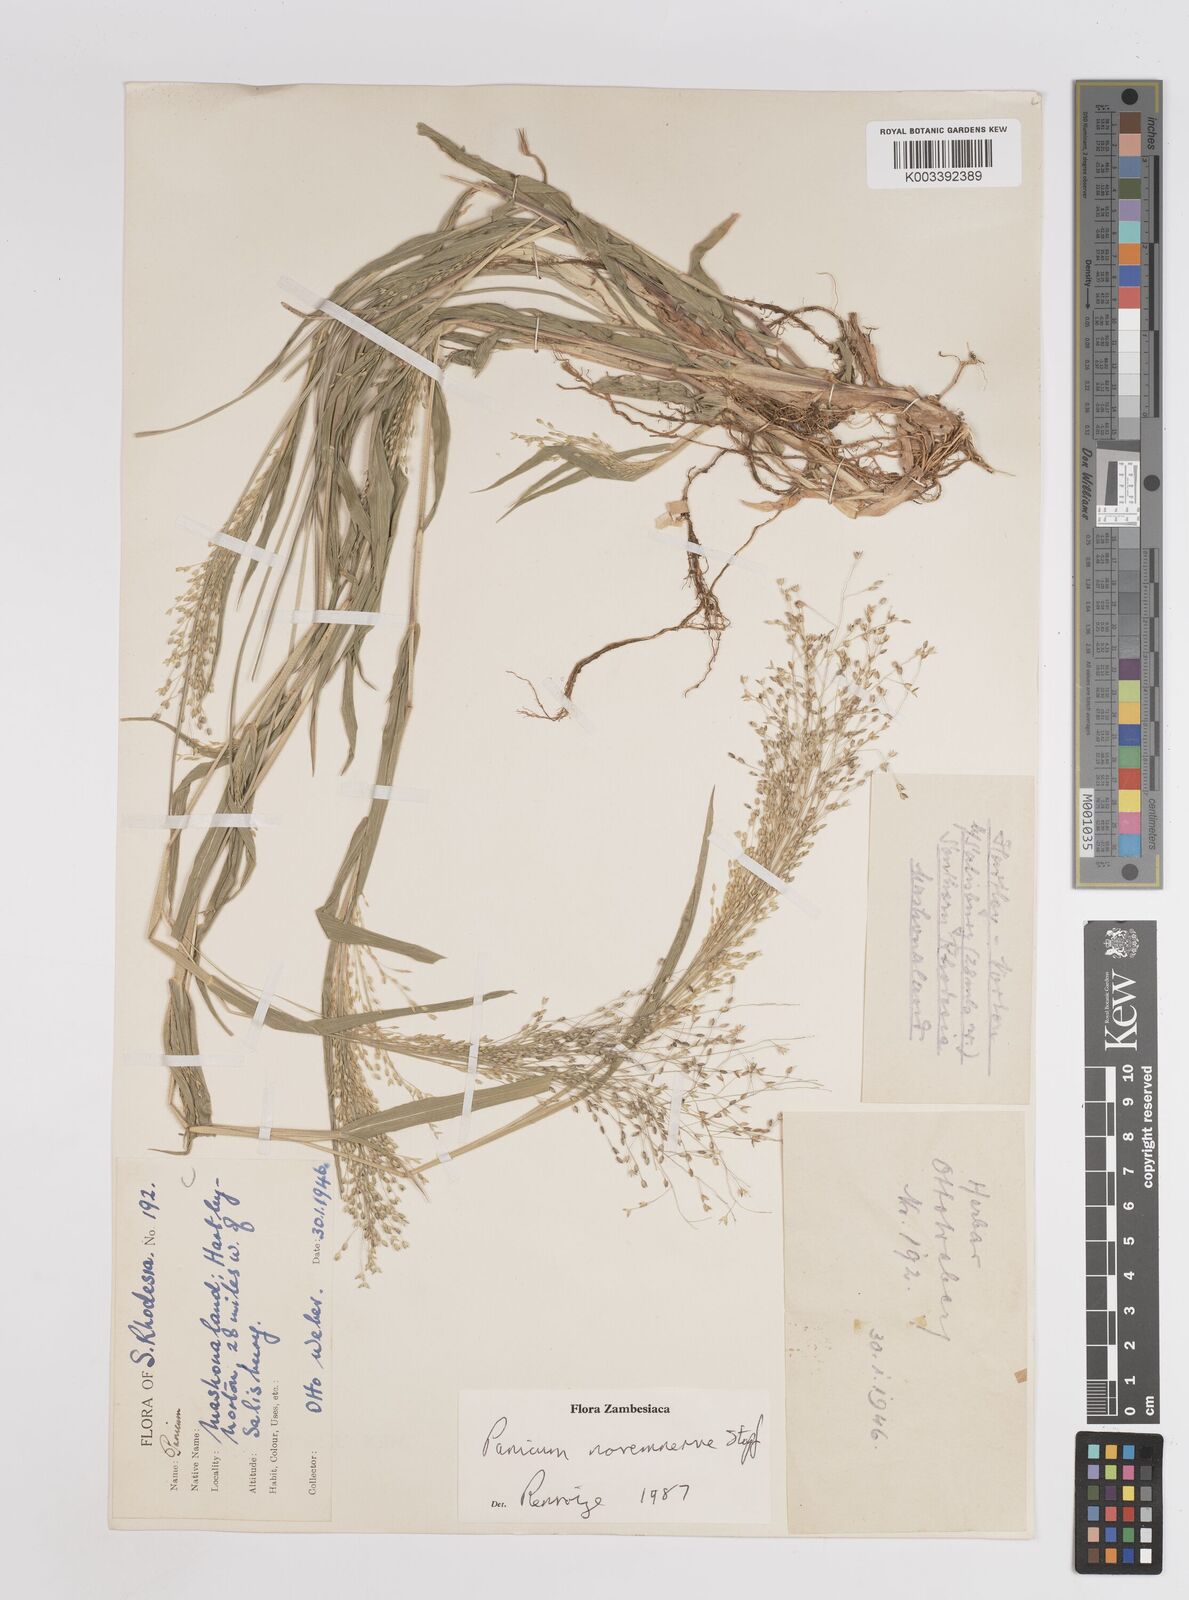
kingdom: Plantae
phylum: Tracheophyta
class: Liliopsida
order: Poales
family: Poaceae
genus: Panicum
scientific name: Panicum novemnerve
